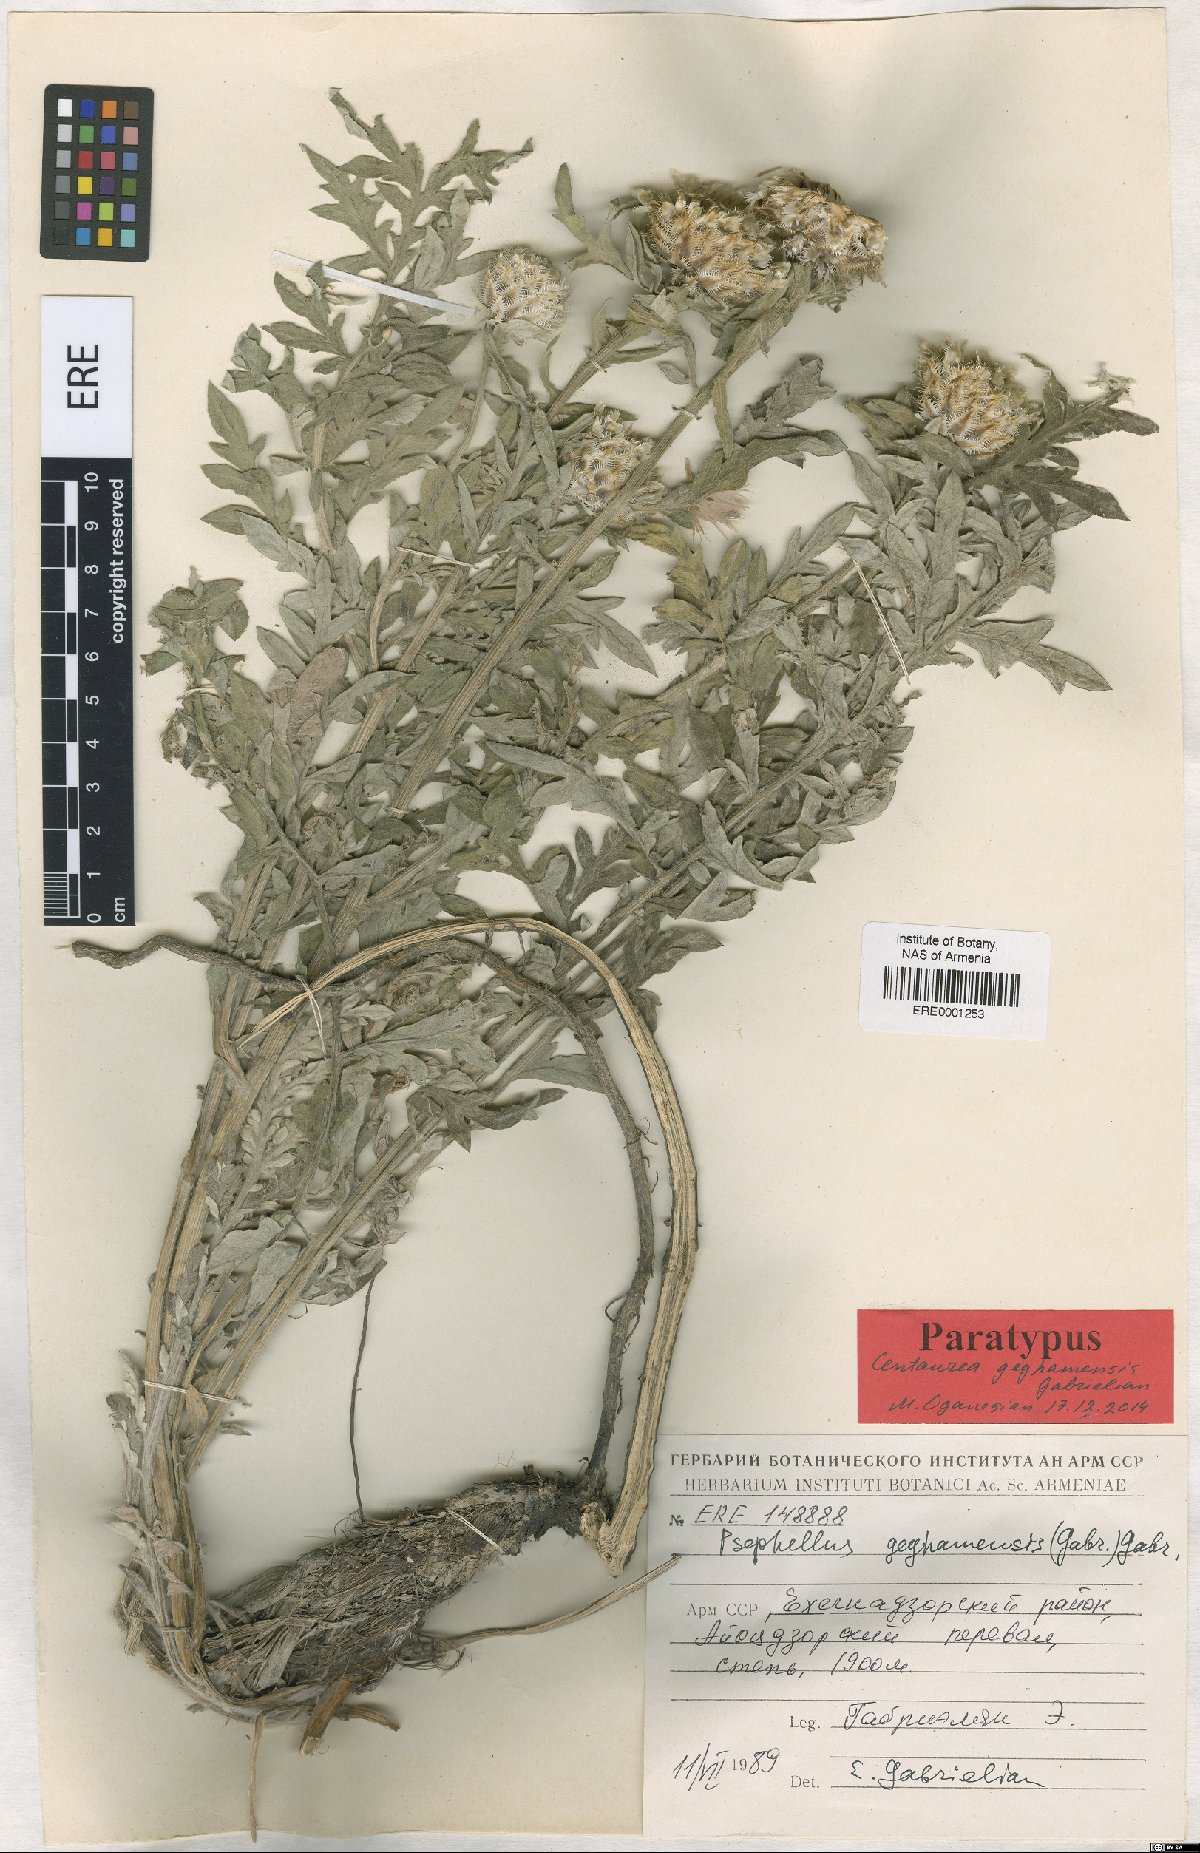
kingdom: Plantae
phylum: Tracheophyta
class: Magnoliopsida
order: Asterales
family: Asteraceae
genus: Psephellus
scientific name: Psephellus geghamensis
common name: Geghamian cornflower
